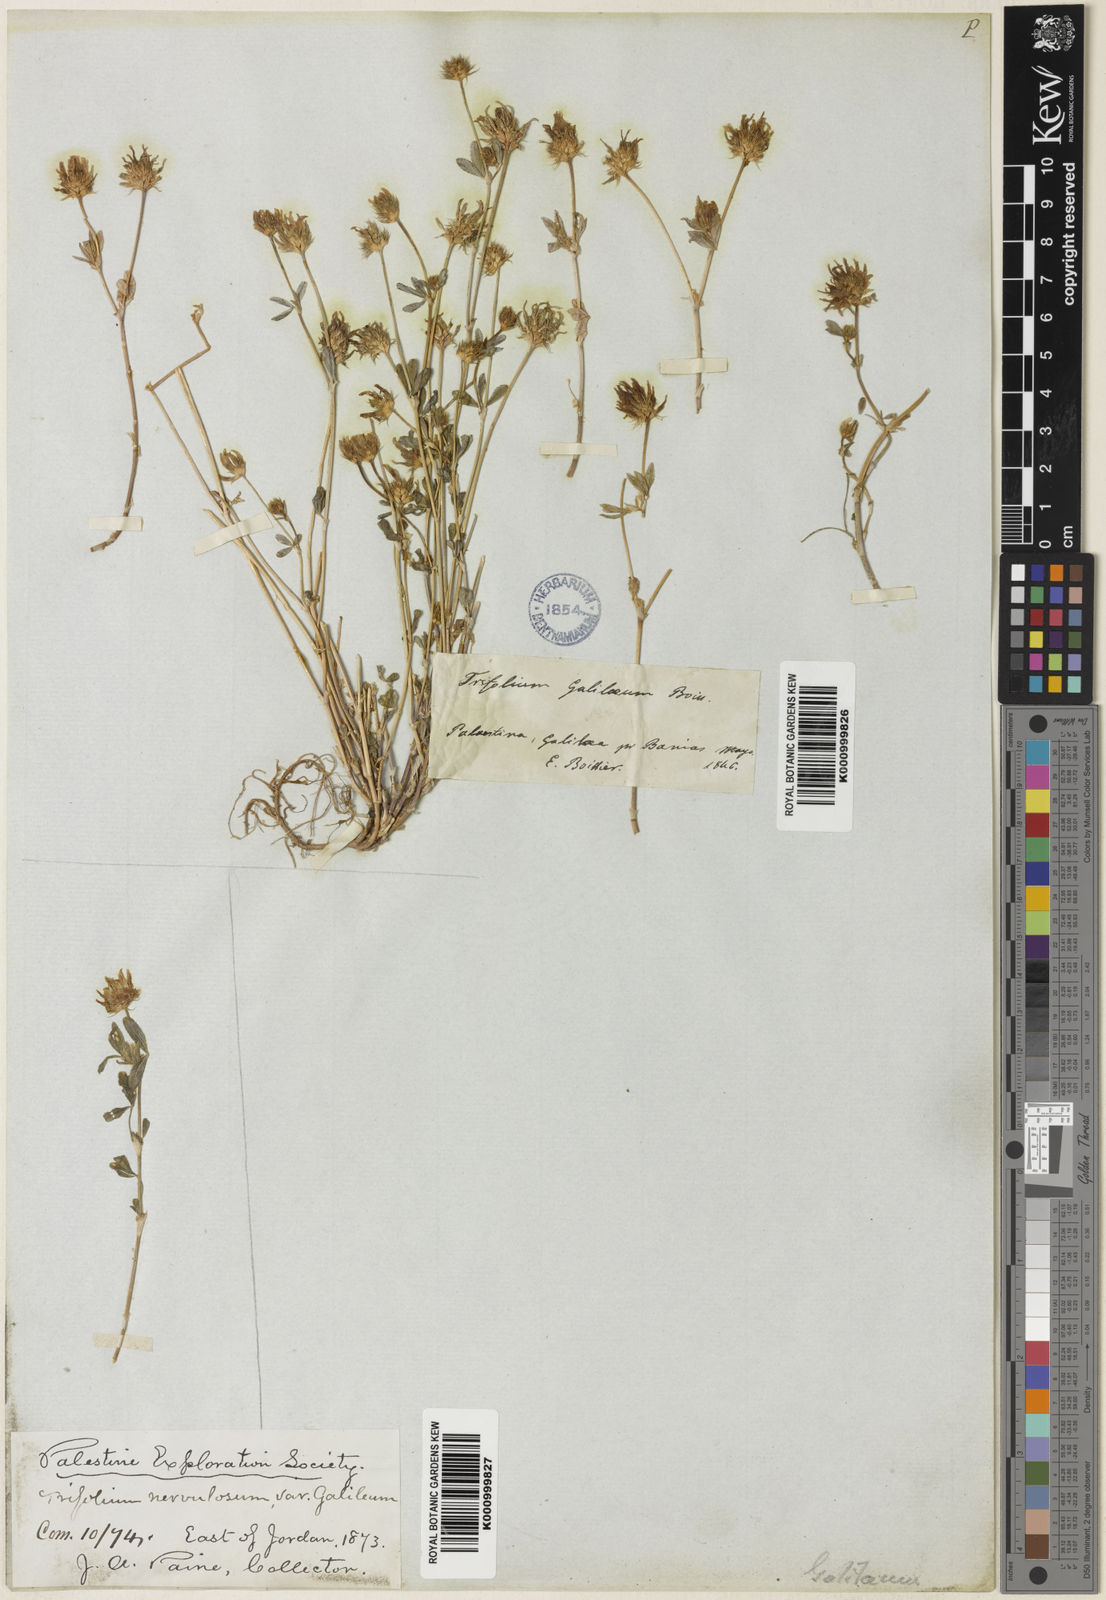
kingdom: Plantae
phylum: Tracheophyta
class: Magnoliopsida
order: Fabales
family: Fabaceae
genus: Trifolium
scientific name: Trifolium glanduliferum
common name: Glandular clover
